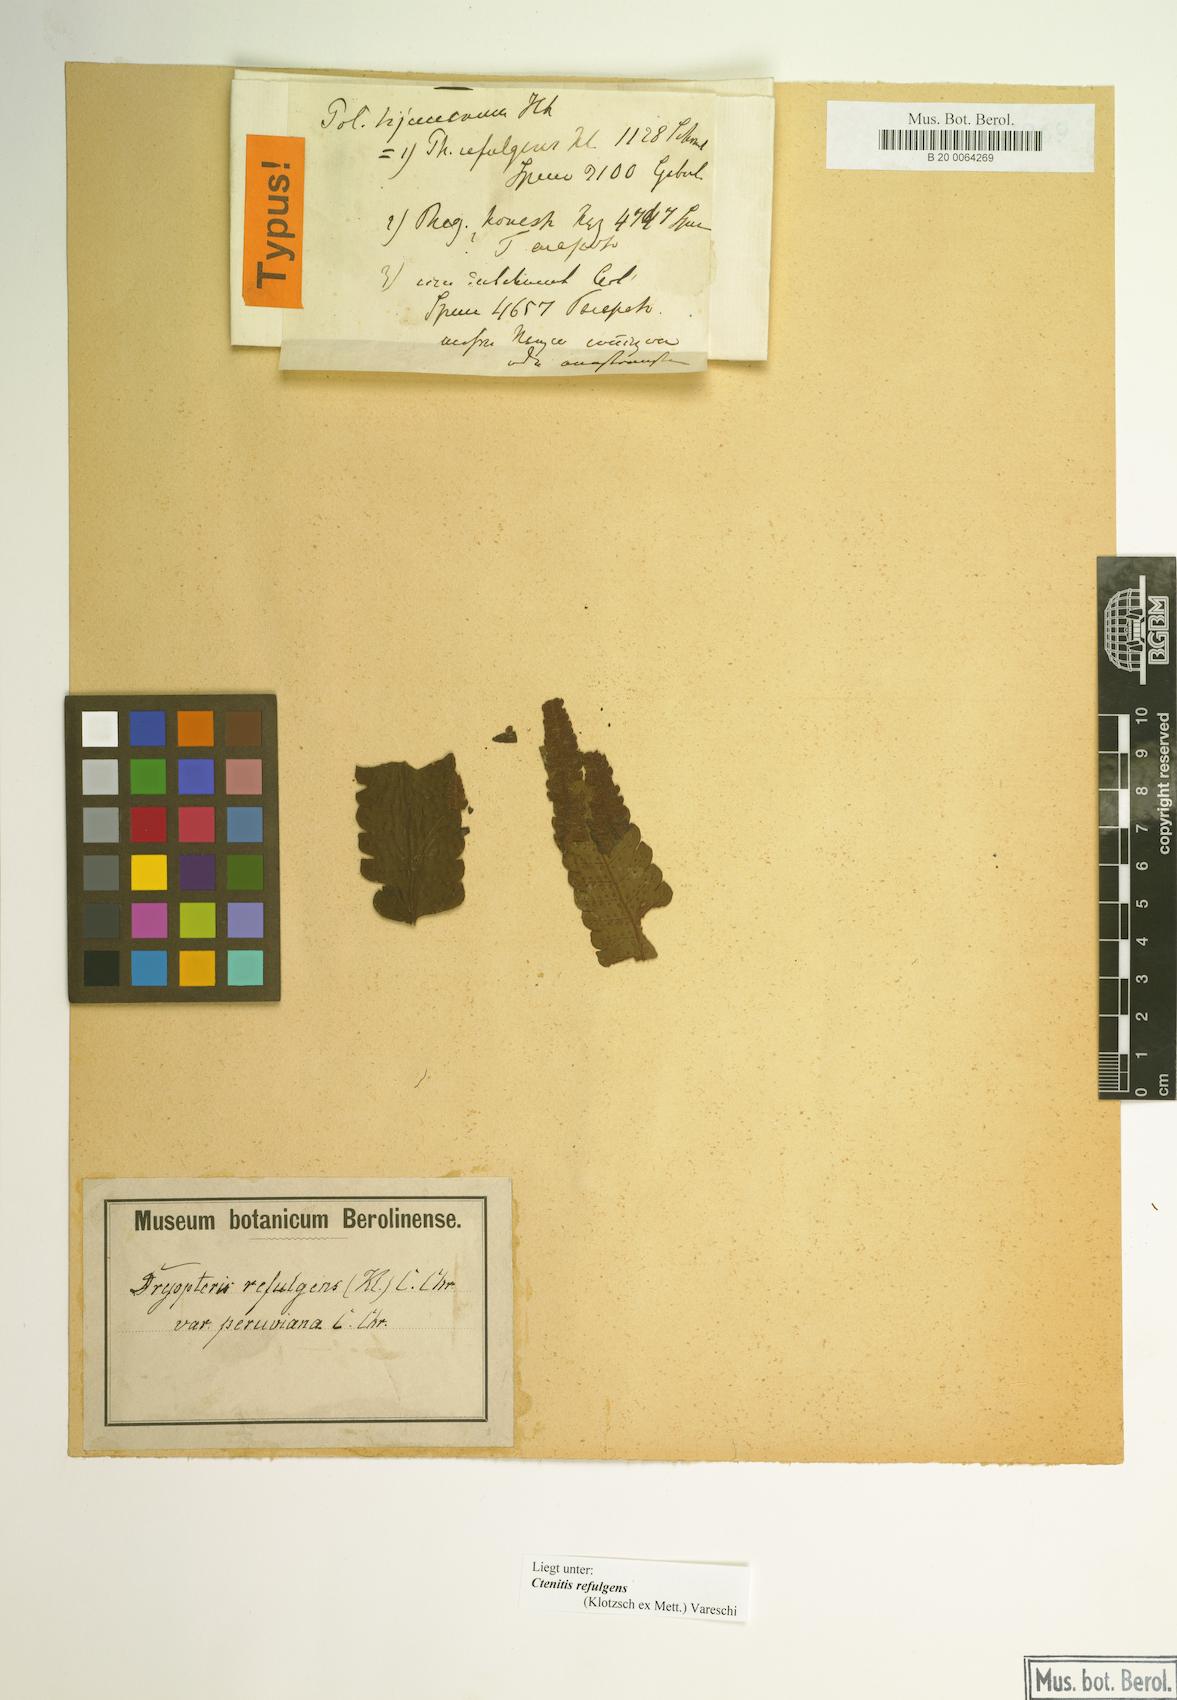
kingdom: Plantae
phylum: Tracheophyta
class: Polypodiopsida
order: Polypodiales
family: Dryopteridaceae
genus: Ctenitis
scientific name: Ctenitis refulgens
